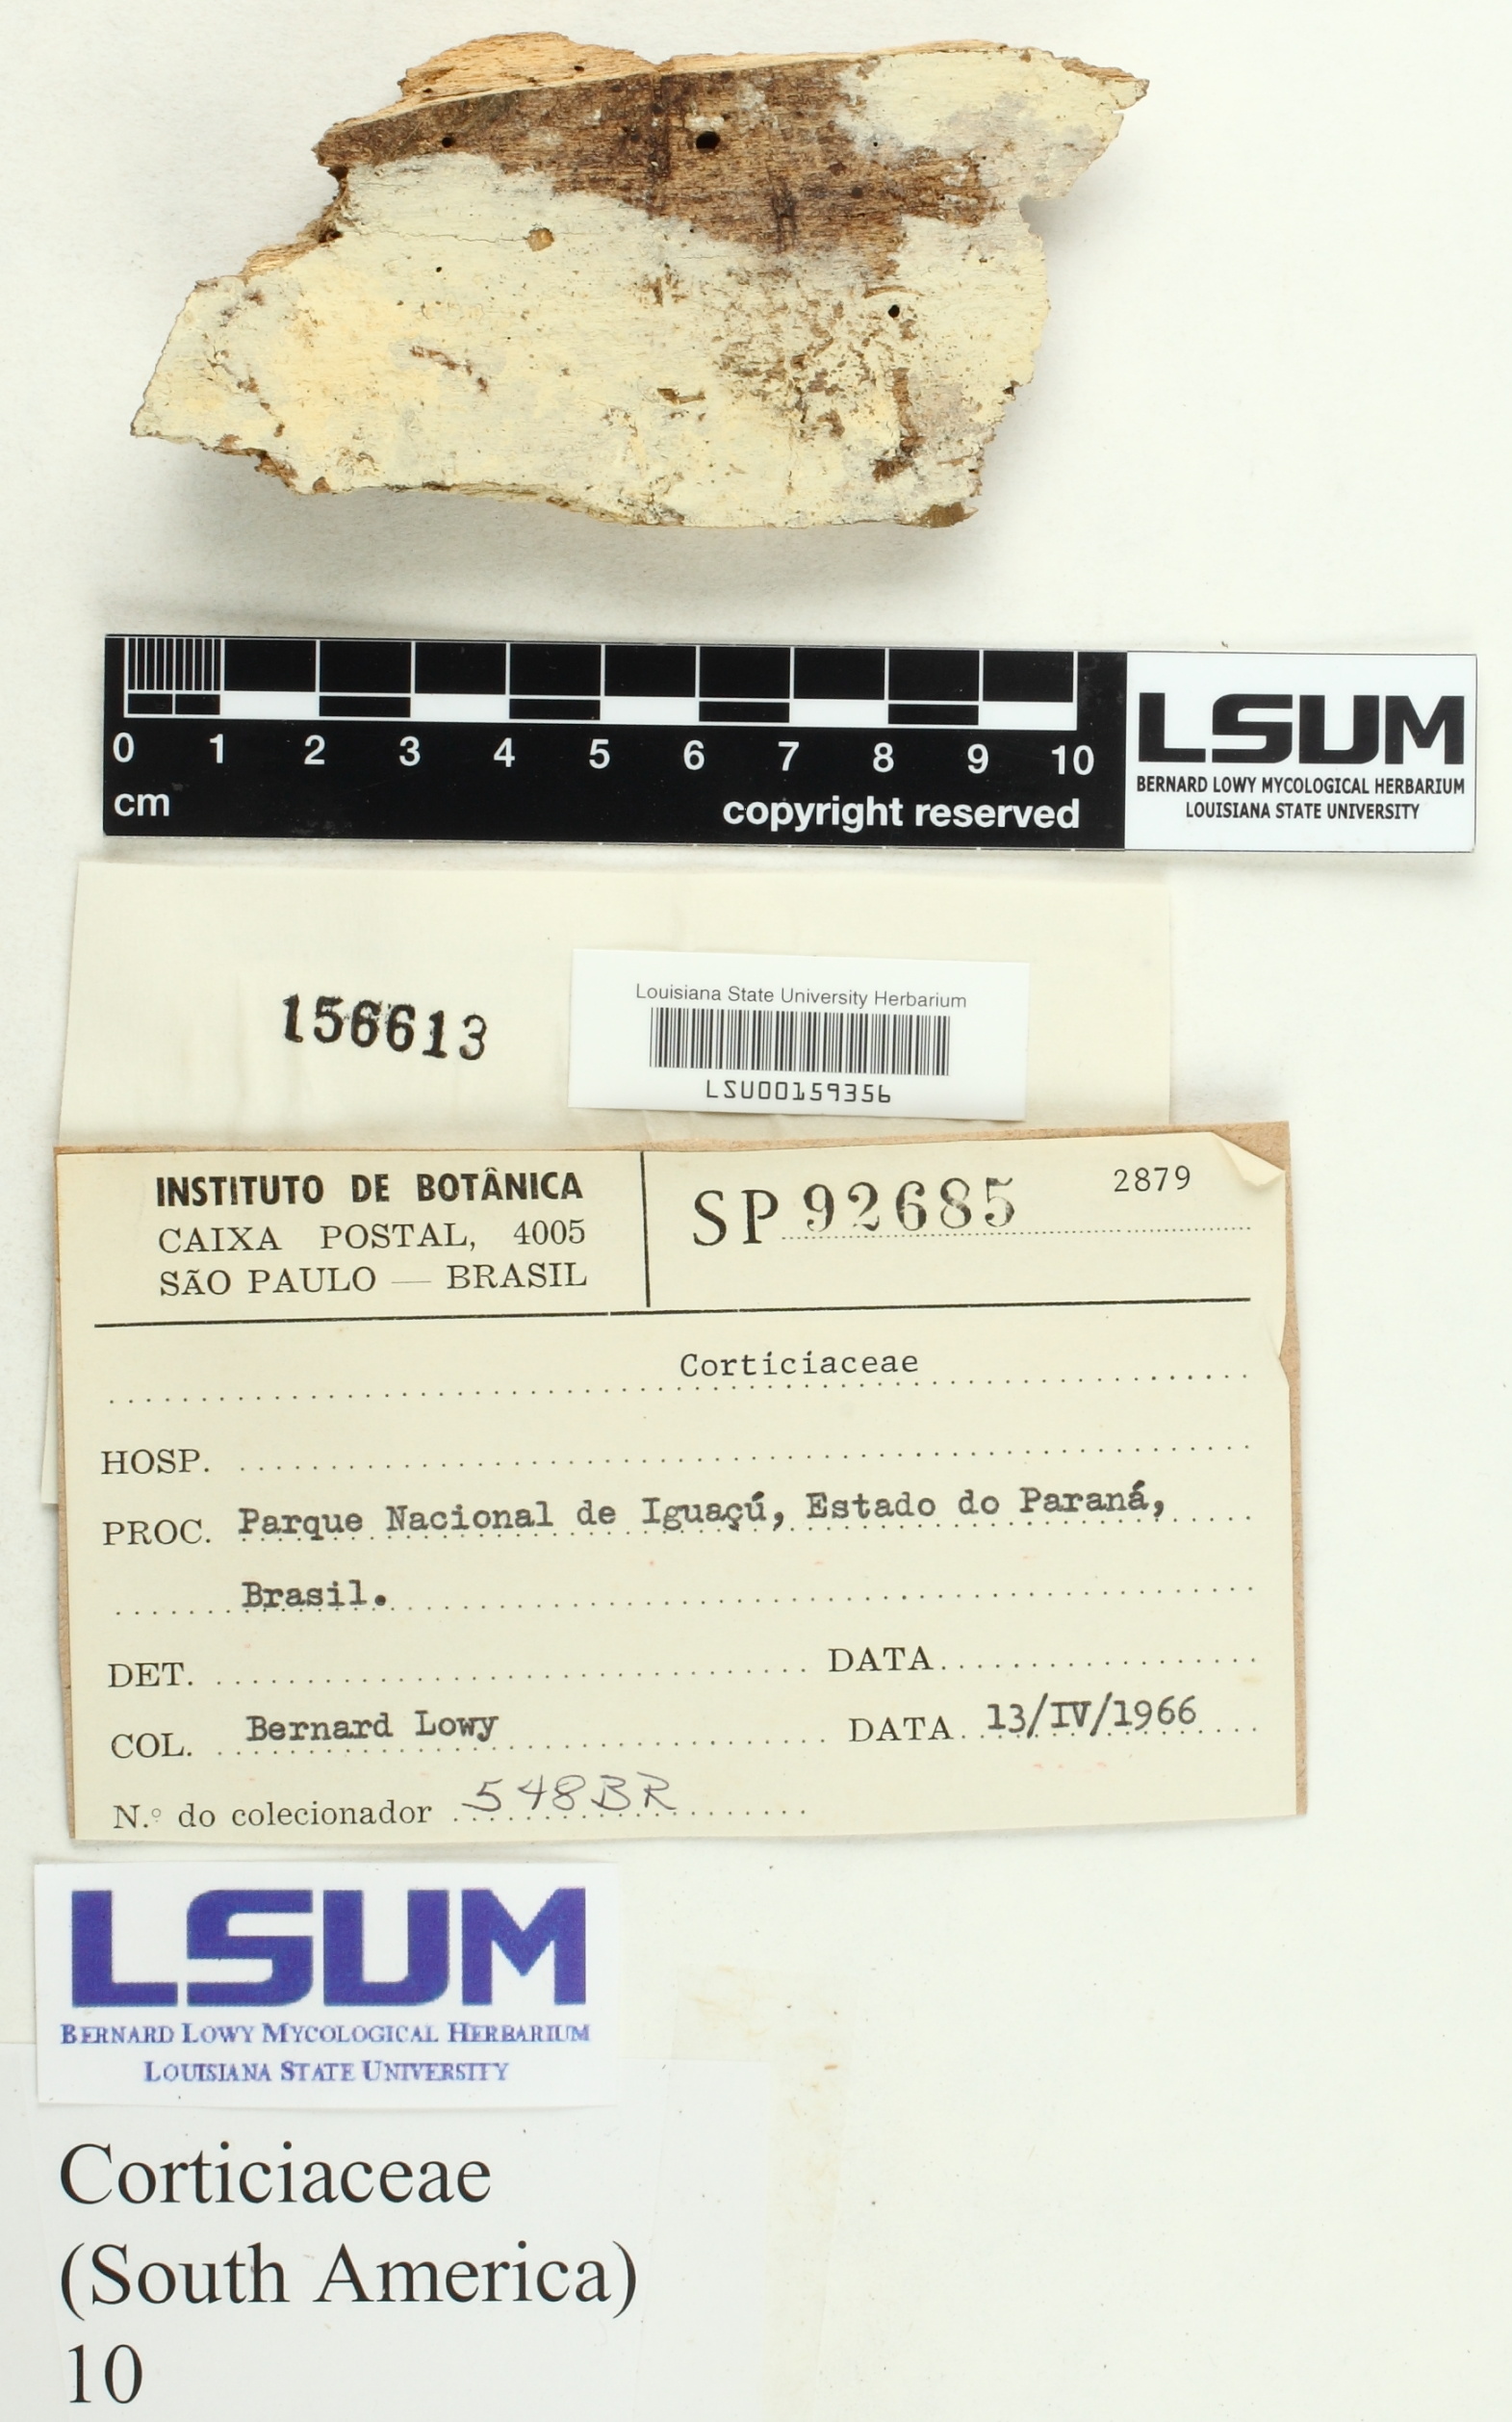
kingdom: Fungi
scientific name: Fungi
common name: Fungi
